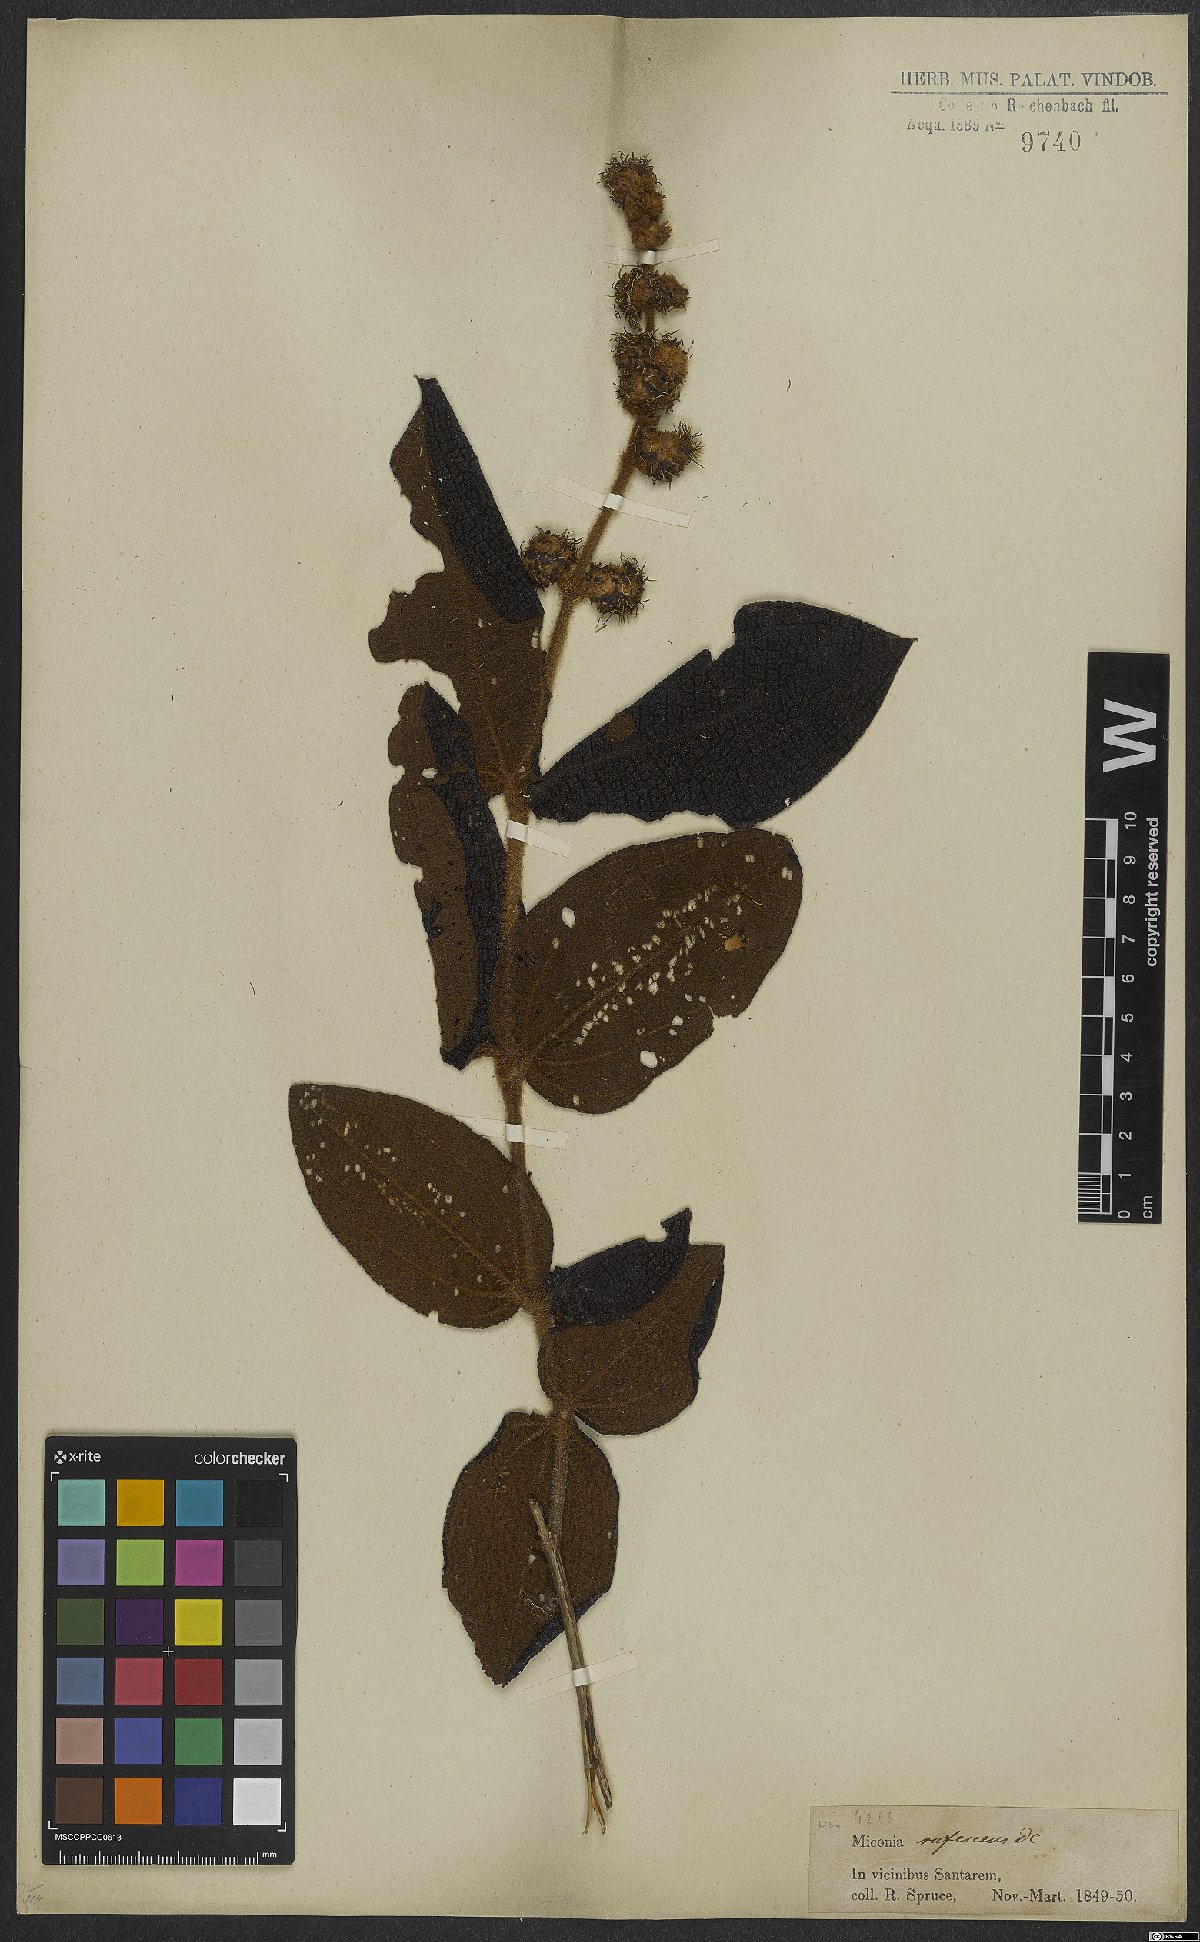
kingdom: Plantae
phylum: Tracheophyta
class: Magnoliopsida
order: Myrtales
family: Melastomataceae
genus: Miconia
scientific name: Miconia rufescens
